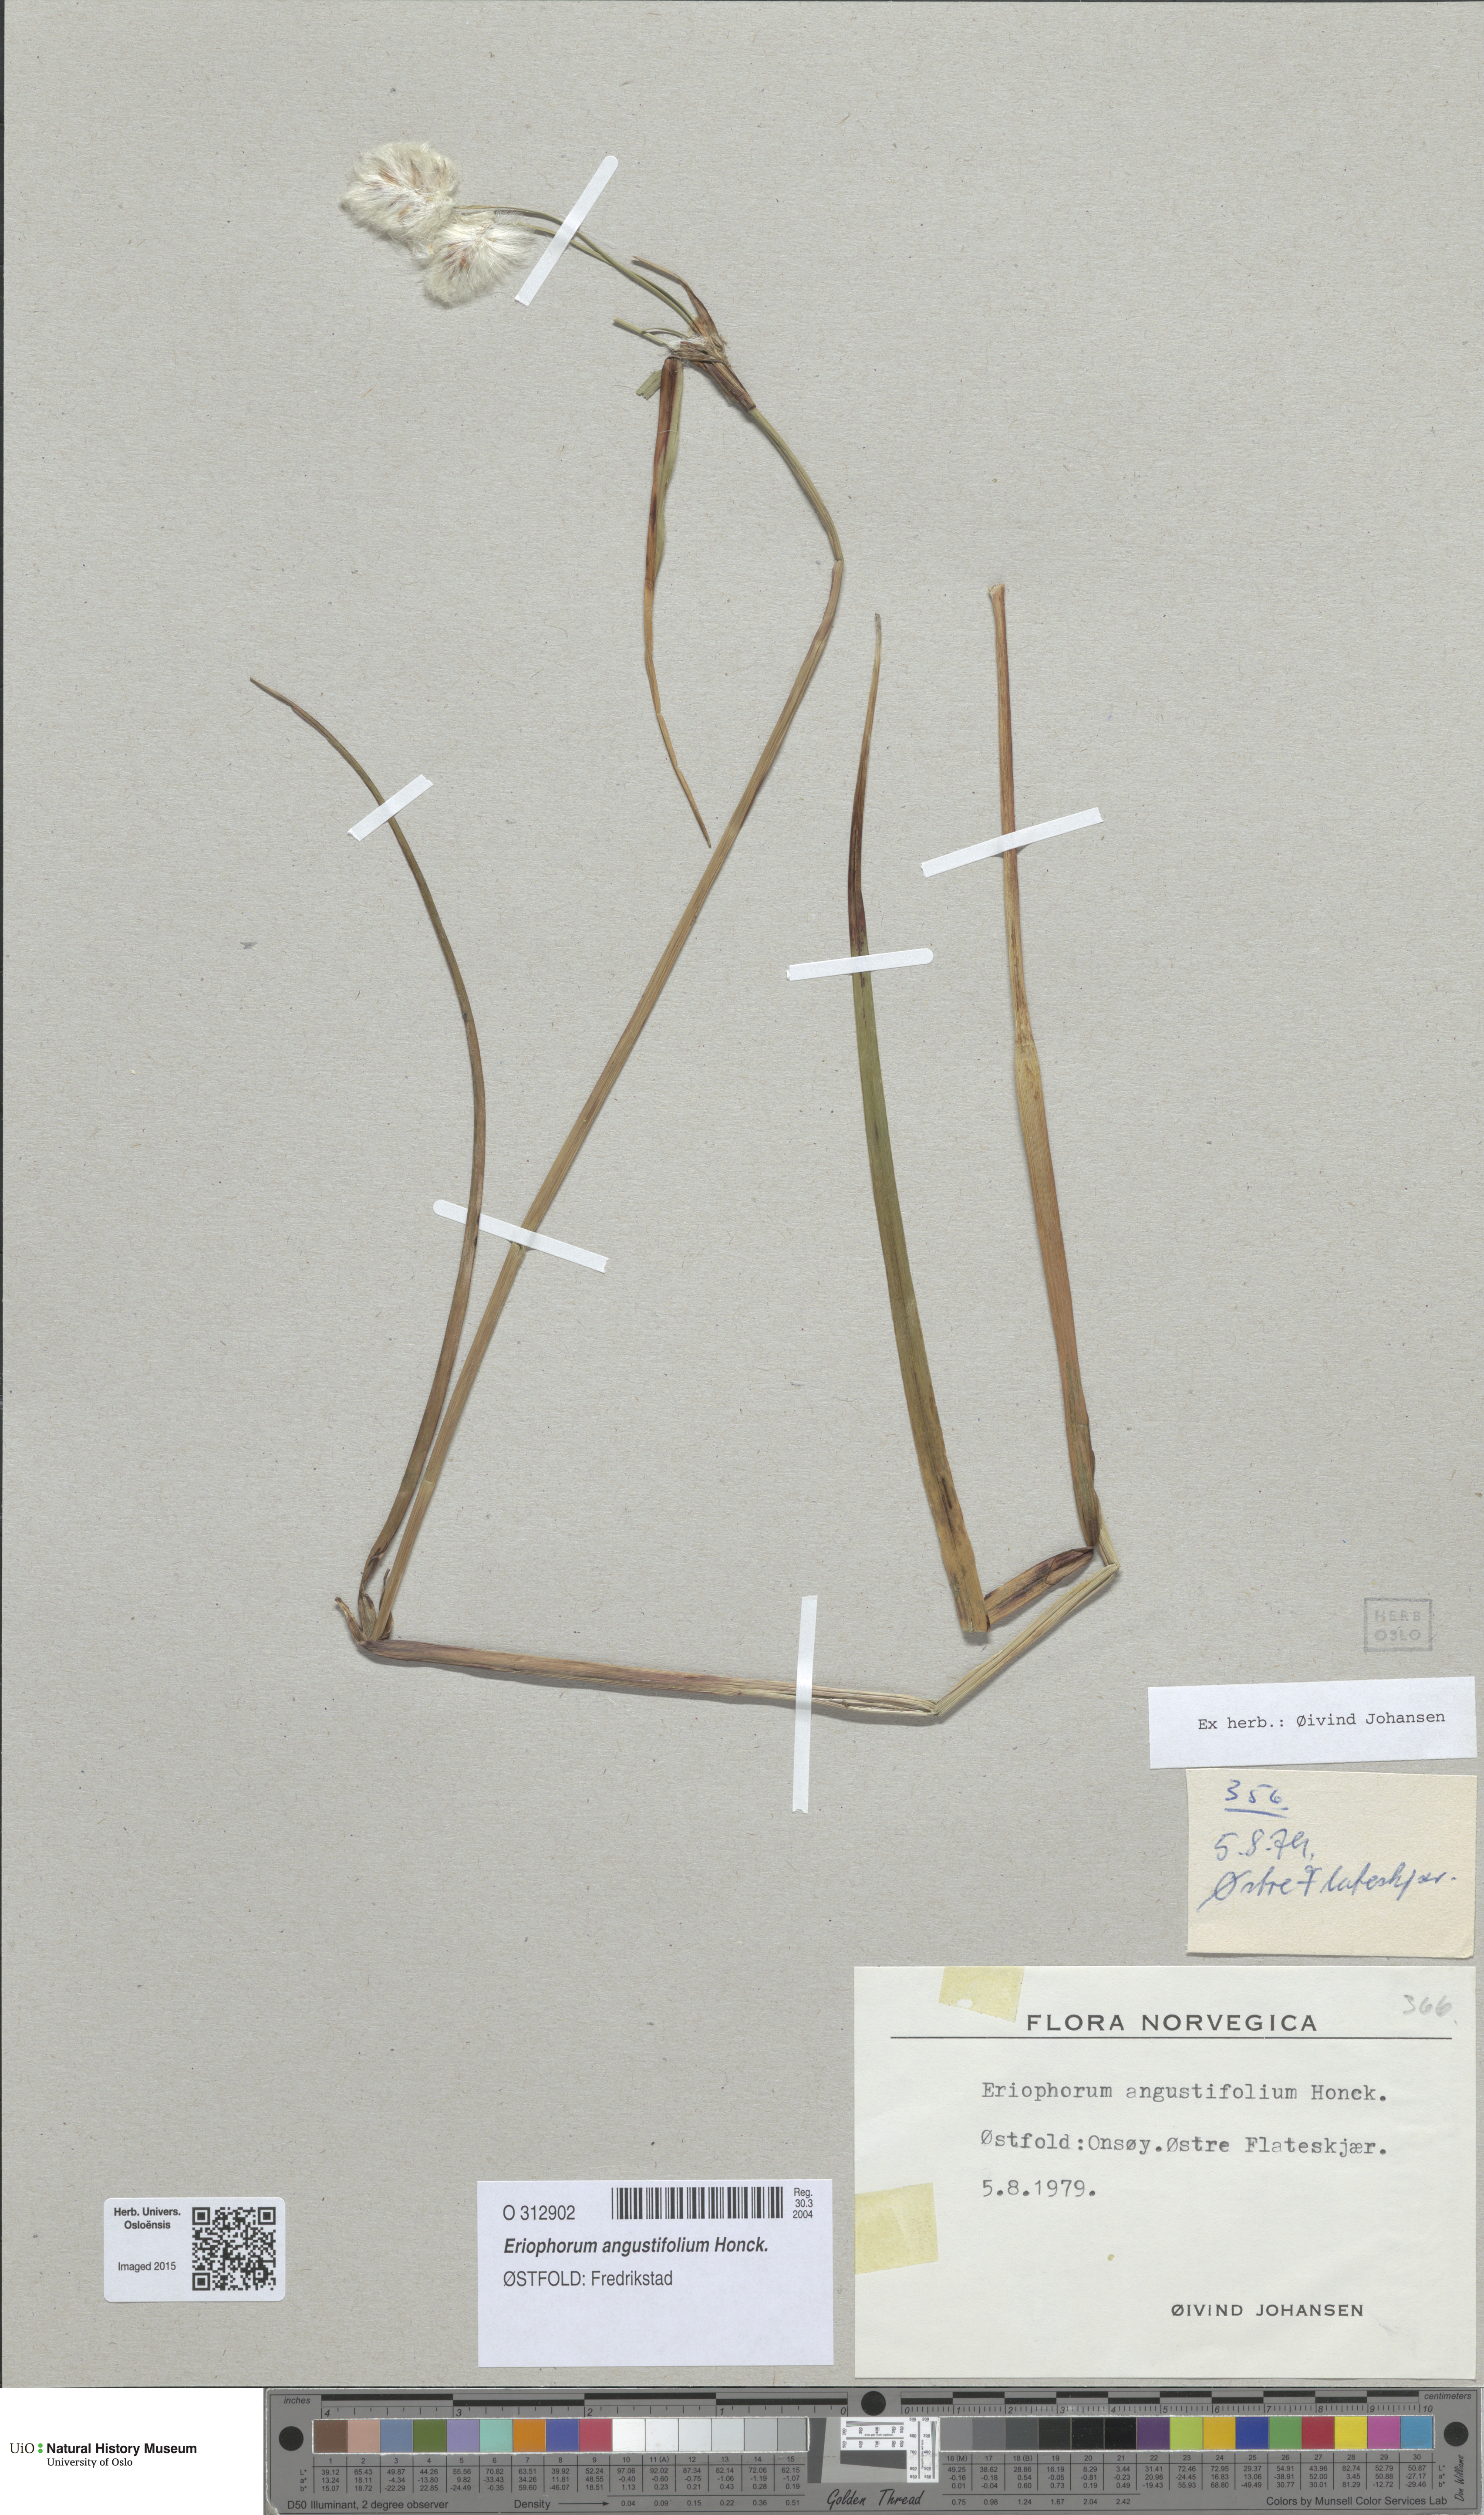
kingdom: Plantae
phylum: Tracheophyta
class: Liliopsida
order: Poales
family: Cyperaceae
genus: Eriophorum
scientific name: Eriophorum angustifolium
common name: Common cottongrass
